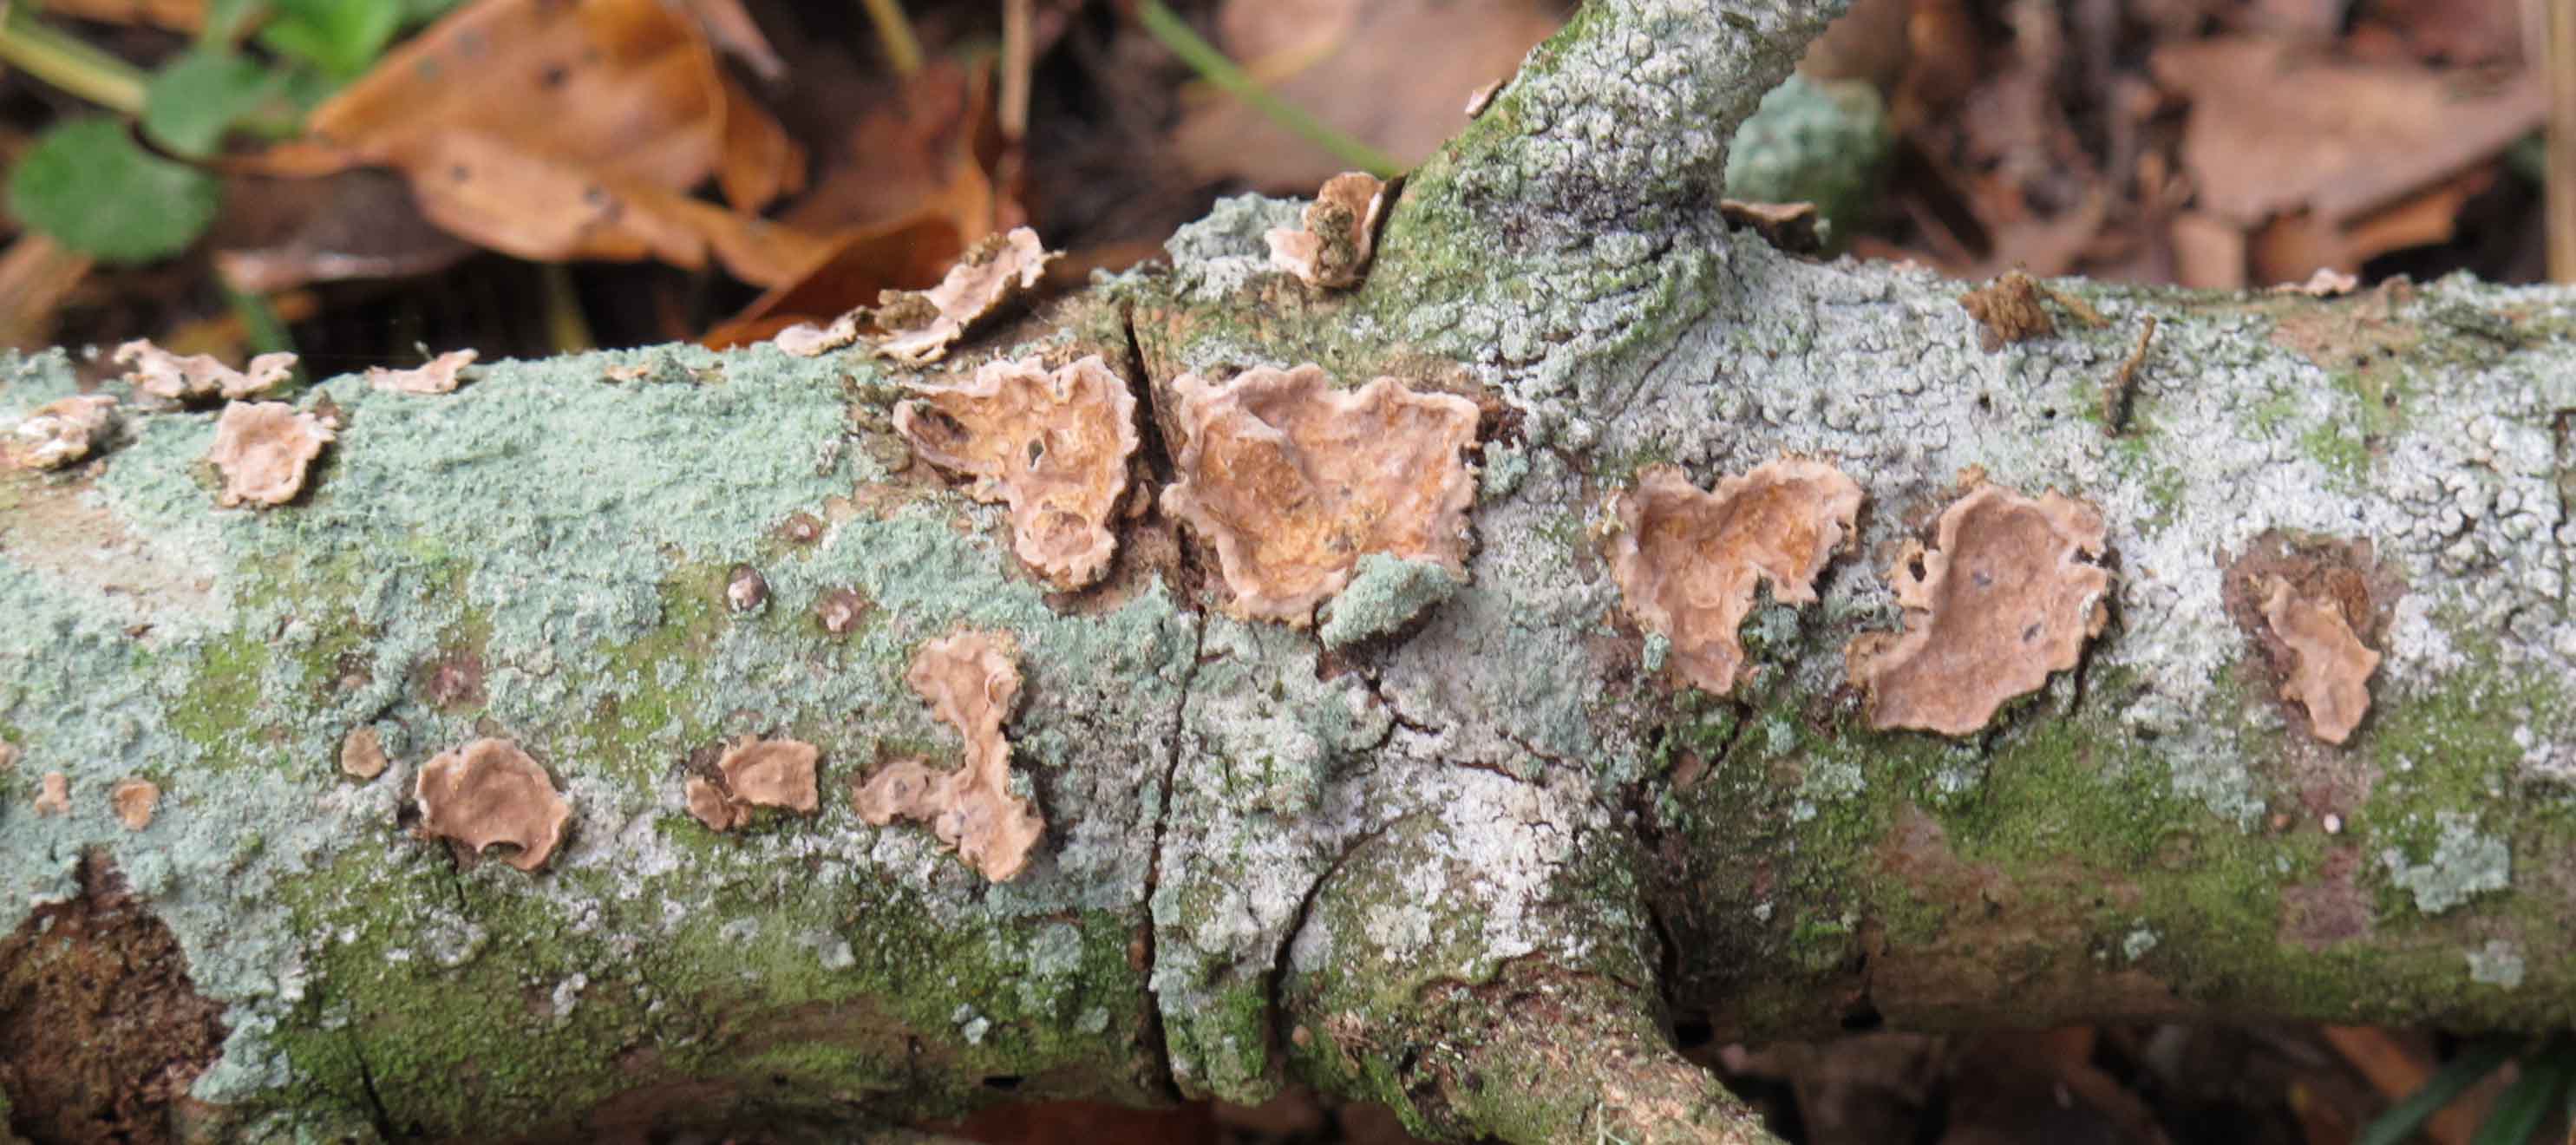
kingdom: Fungi
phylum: Basidiomycota
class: Agaricomycetes
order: Russulales
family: Echinodontiaceae
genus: Amylostereum
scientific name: Amylostereum chailletii
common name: gran-lædersvamp
